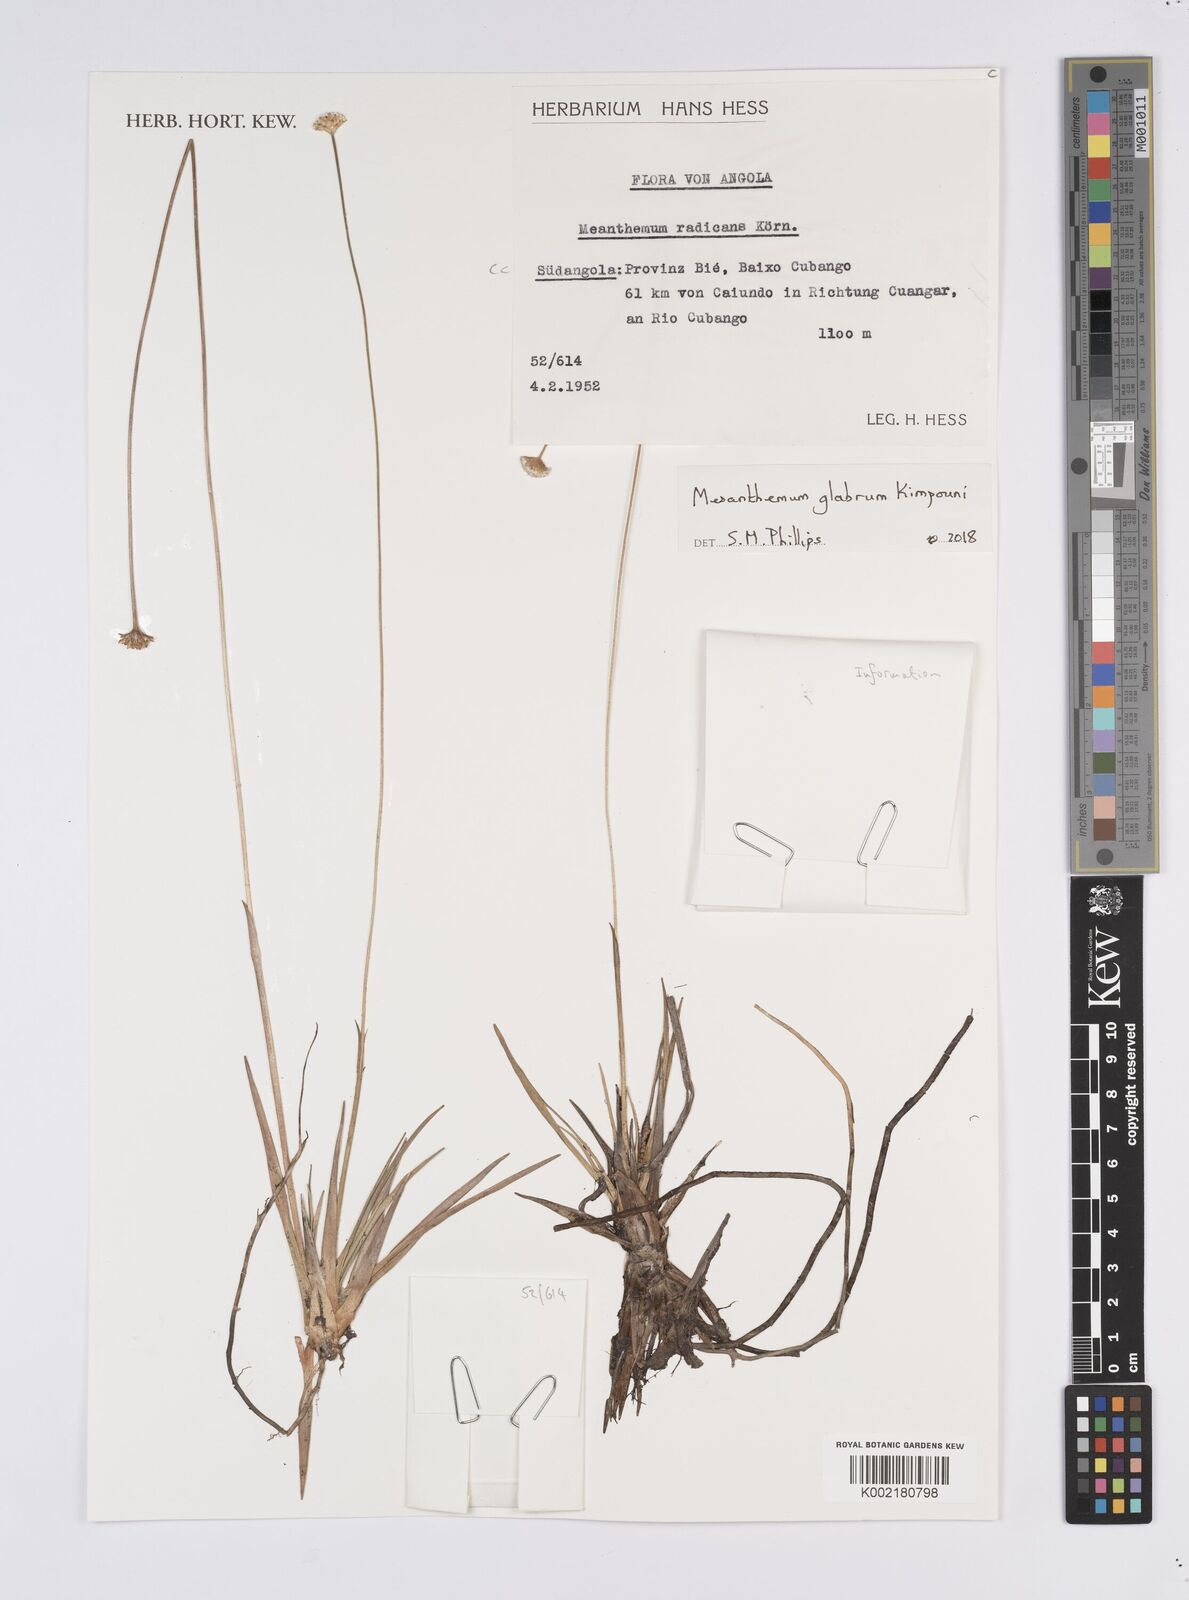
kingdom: Plantae
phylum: Tracheophyta
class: Liliopsida
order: Poales
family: Eriocaulaceae
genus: Mesanthemum
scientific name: Mesanthemum glabrum
